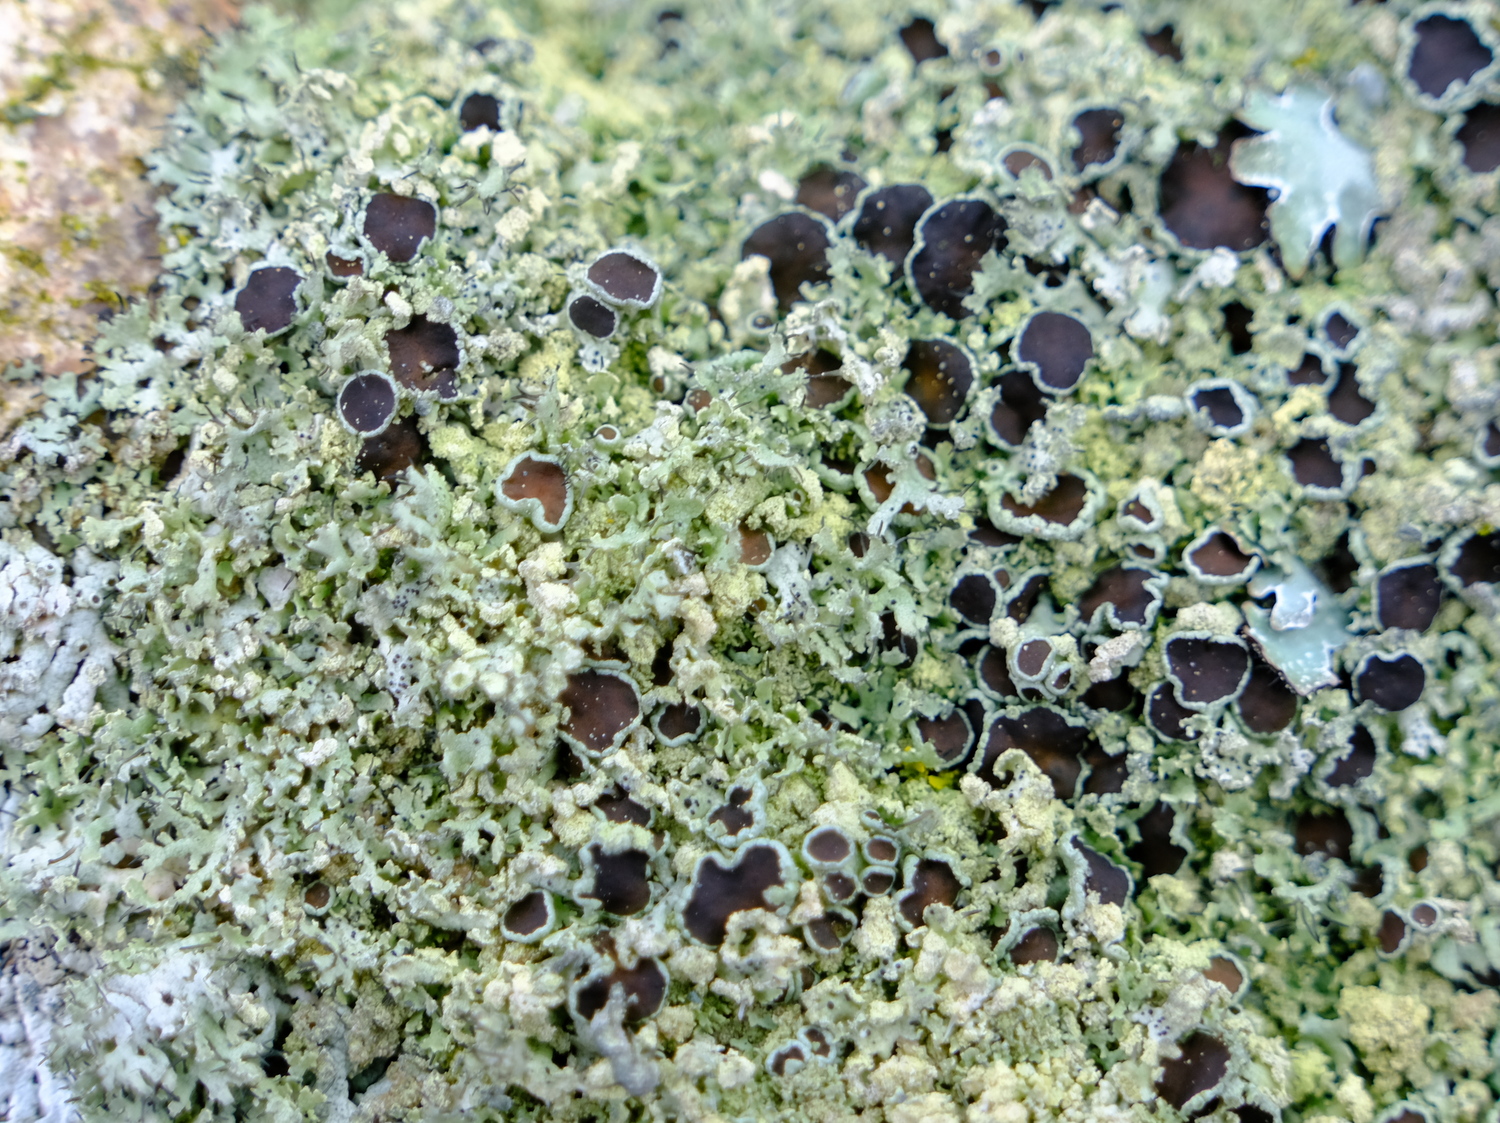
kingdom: Fungi
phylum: Ascomycota
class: Lecanoromycetes
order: Caliciales
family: Physciaceae
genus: Physcia
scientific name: Physcia tenella
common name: spæd rosetlav
